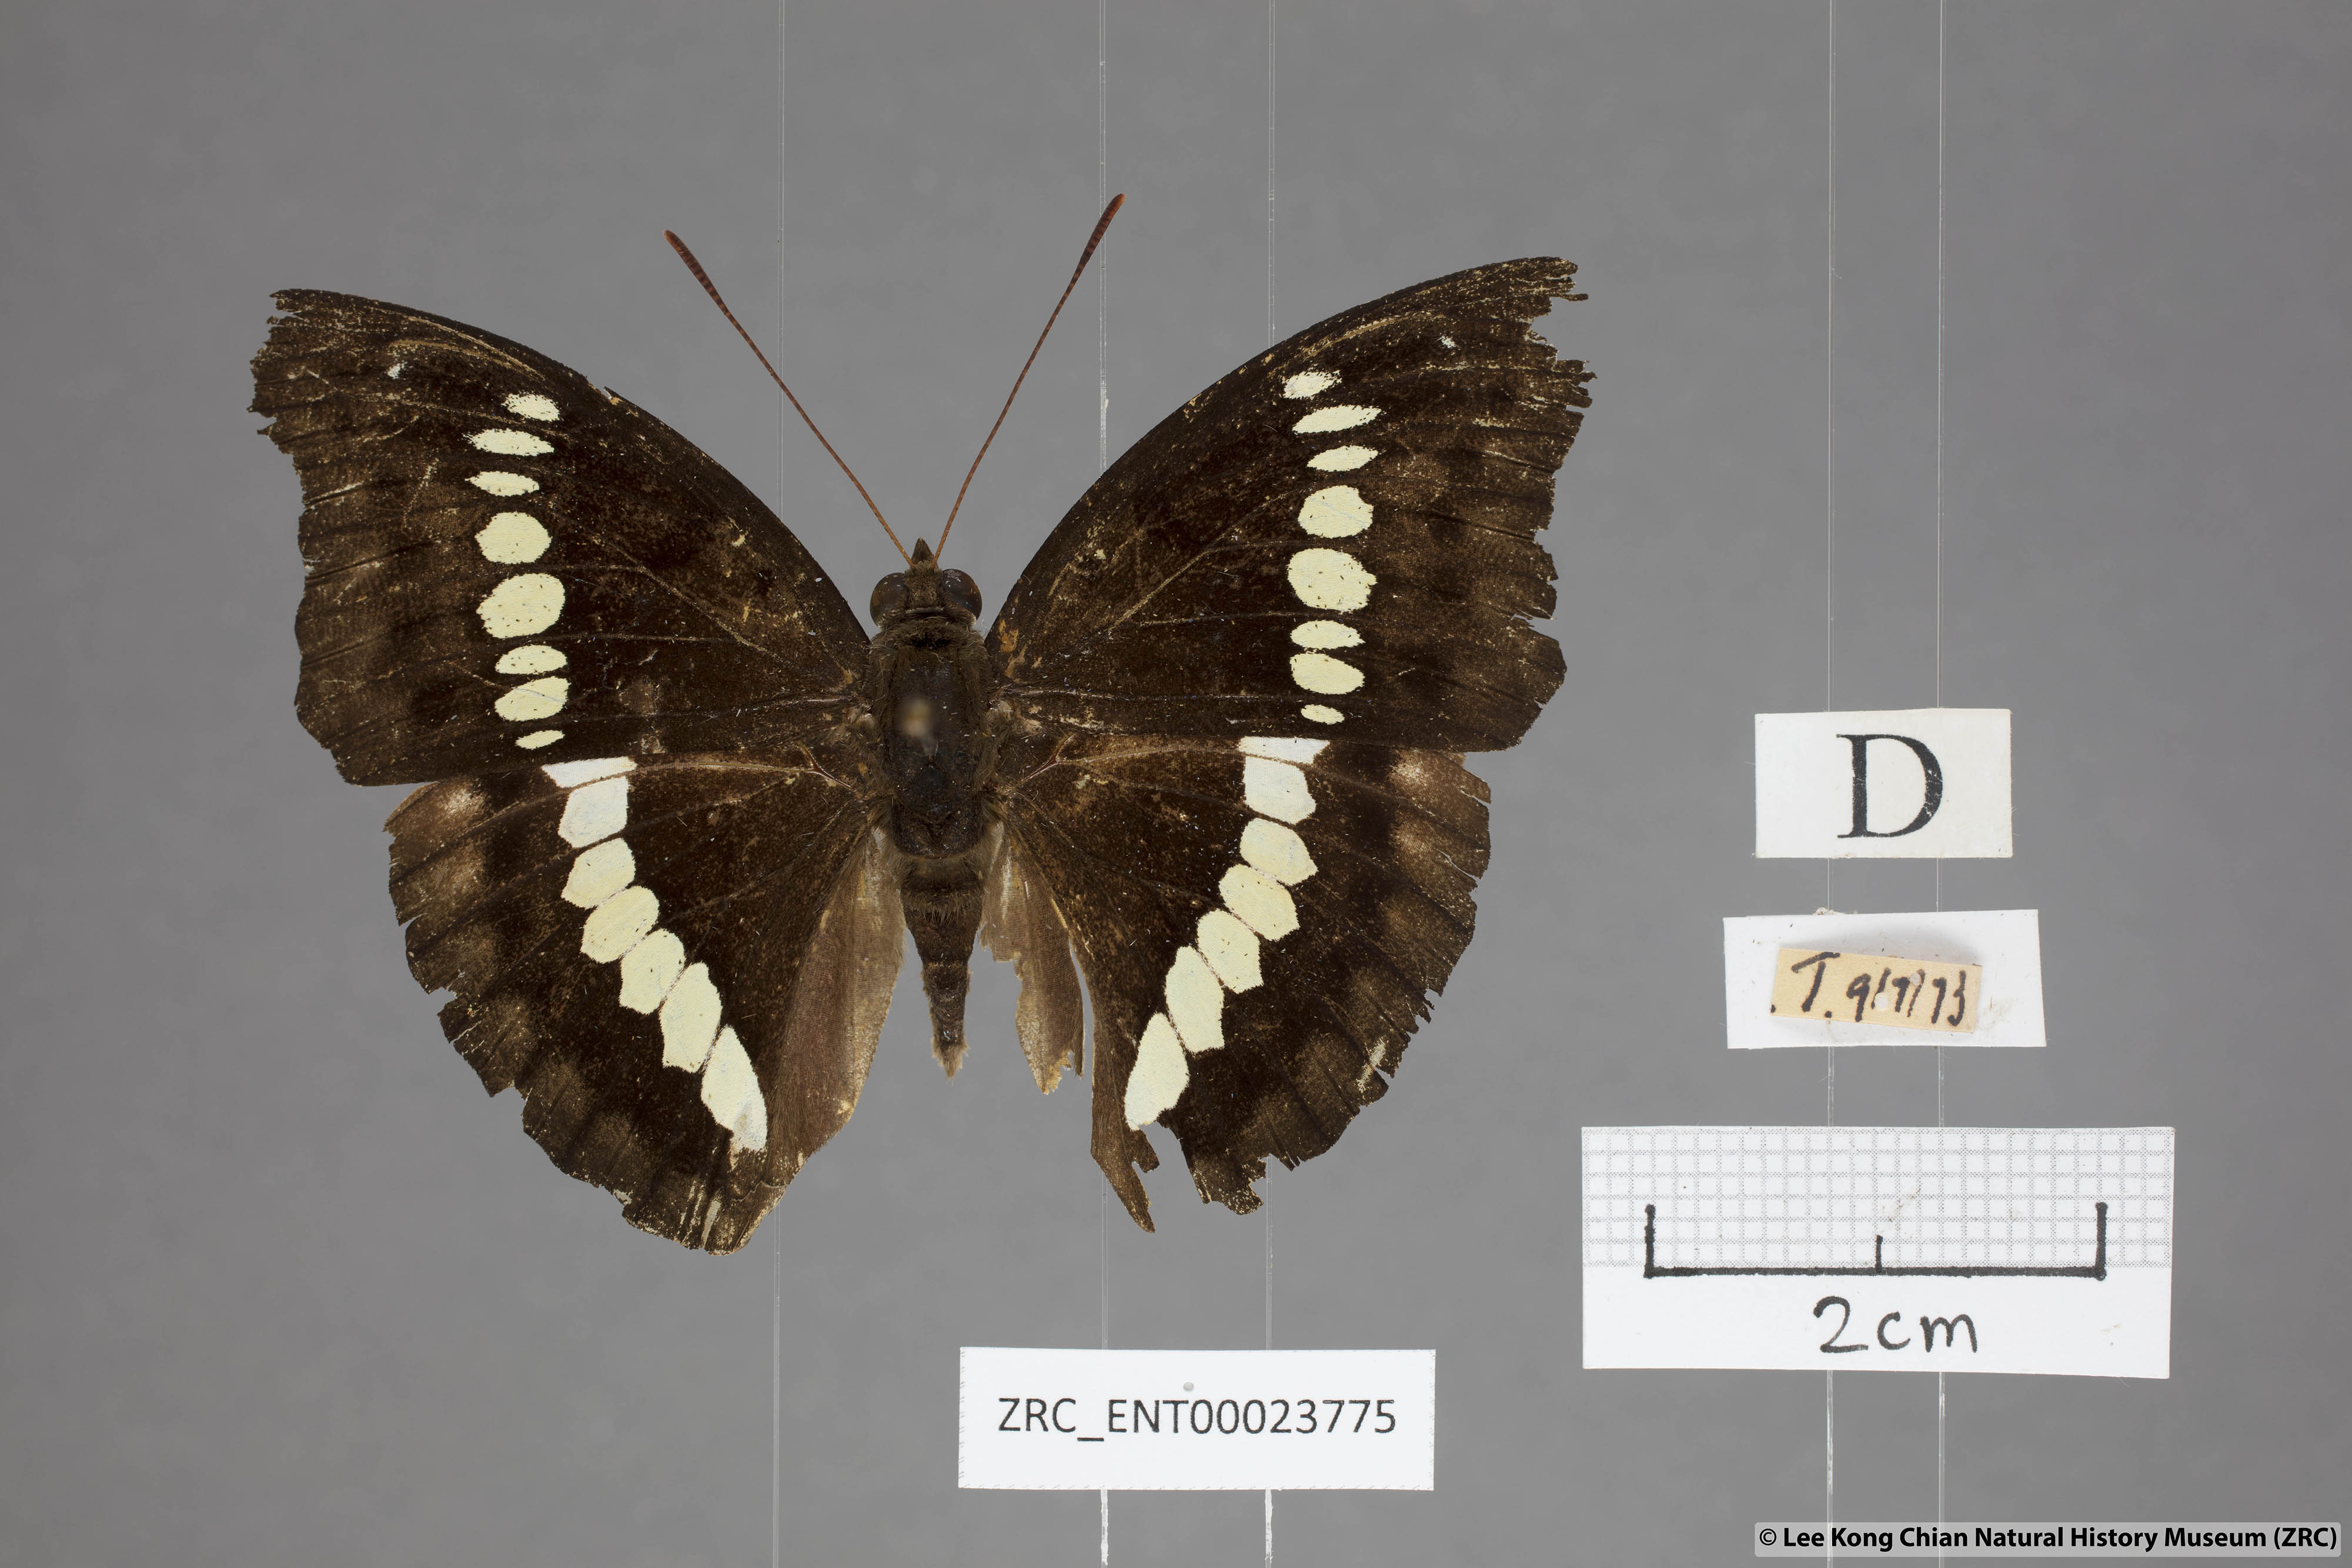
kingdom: Animalia
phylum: Arthropoda
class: Insecta
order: Lepidoptera
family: Nymphalidae
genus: Euthalia
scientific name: Euthalia Bassarona teuta
